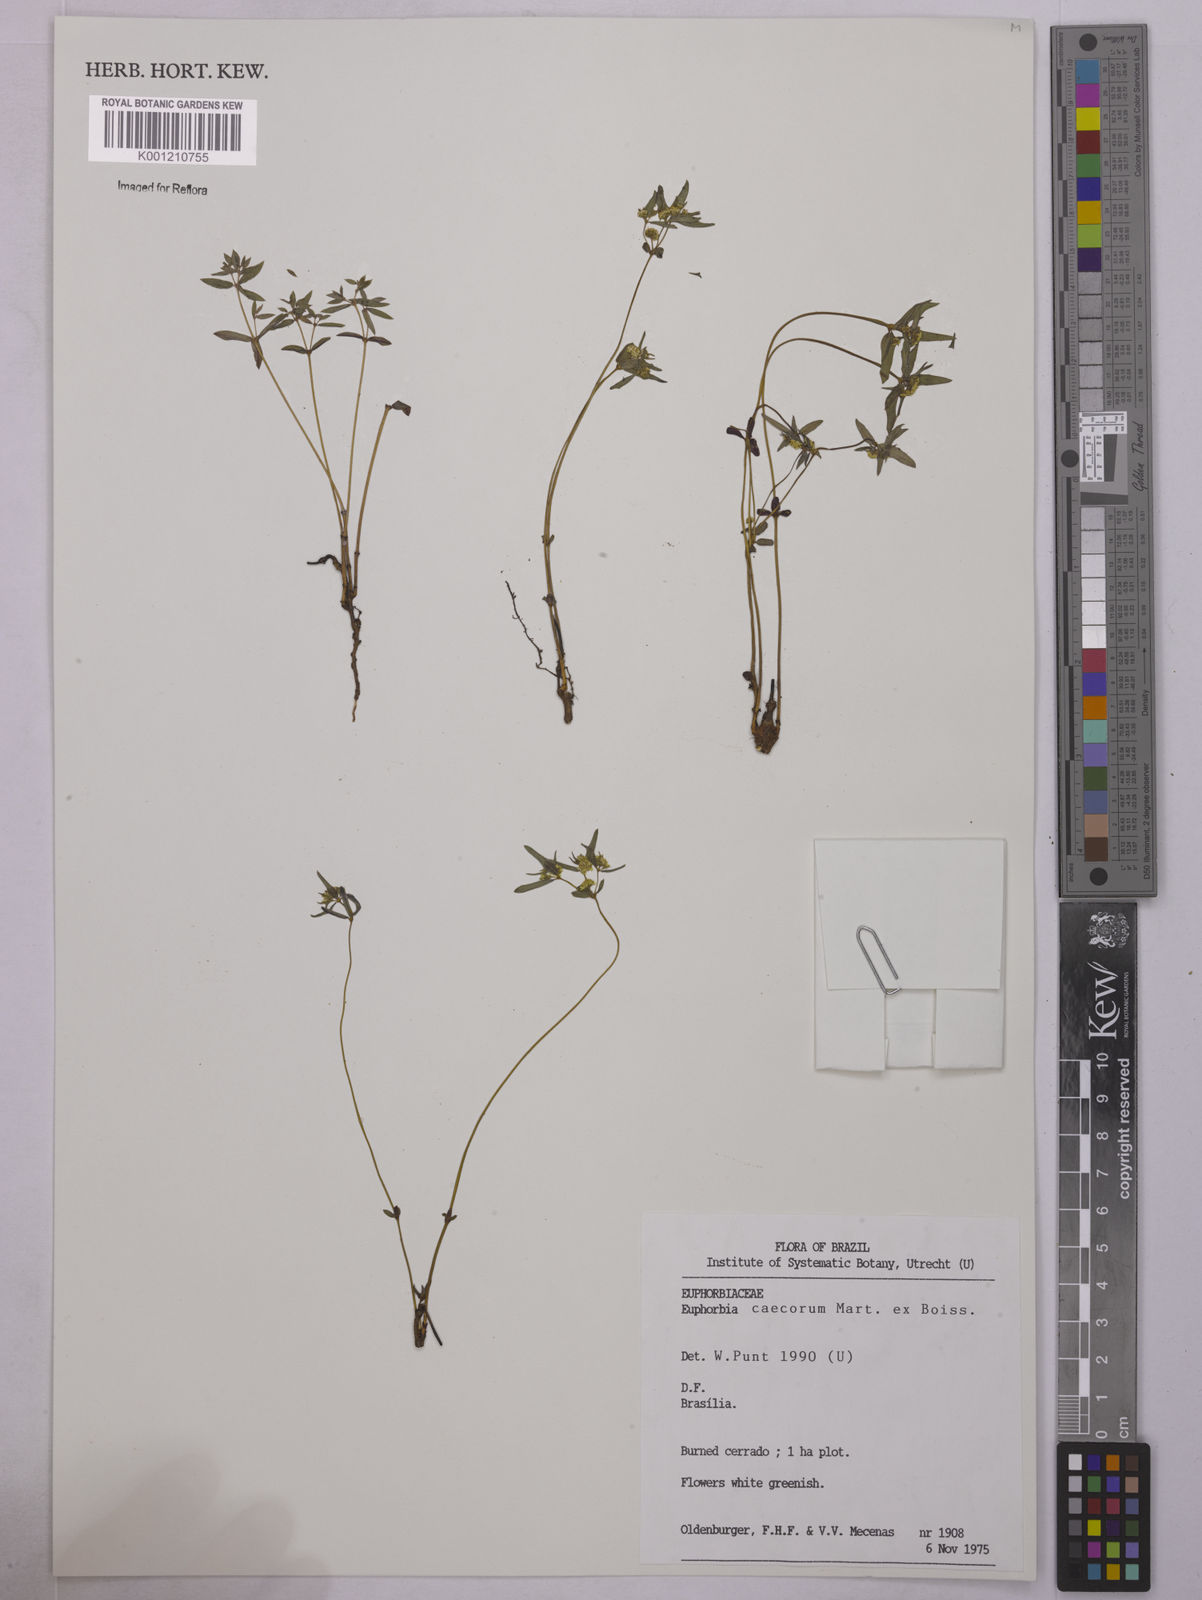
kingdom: Plantae
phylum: Tracheophyta
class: Magnoliopsida
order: Malpighiales
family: Euphorbiaceae
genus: Euphorbia
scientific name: Euphorbia potentilloides
